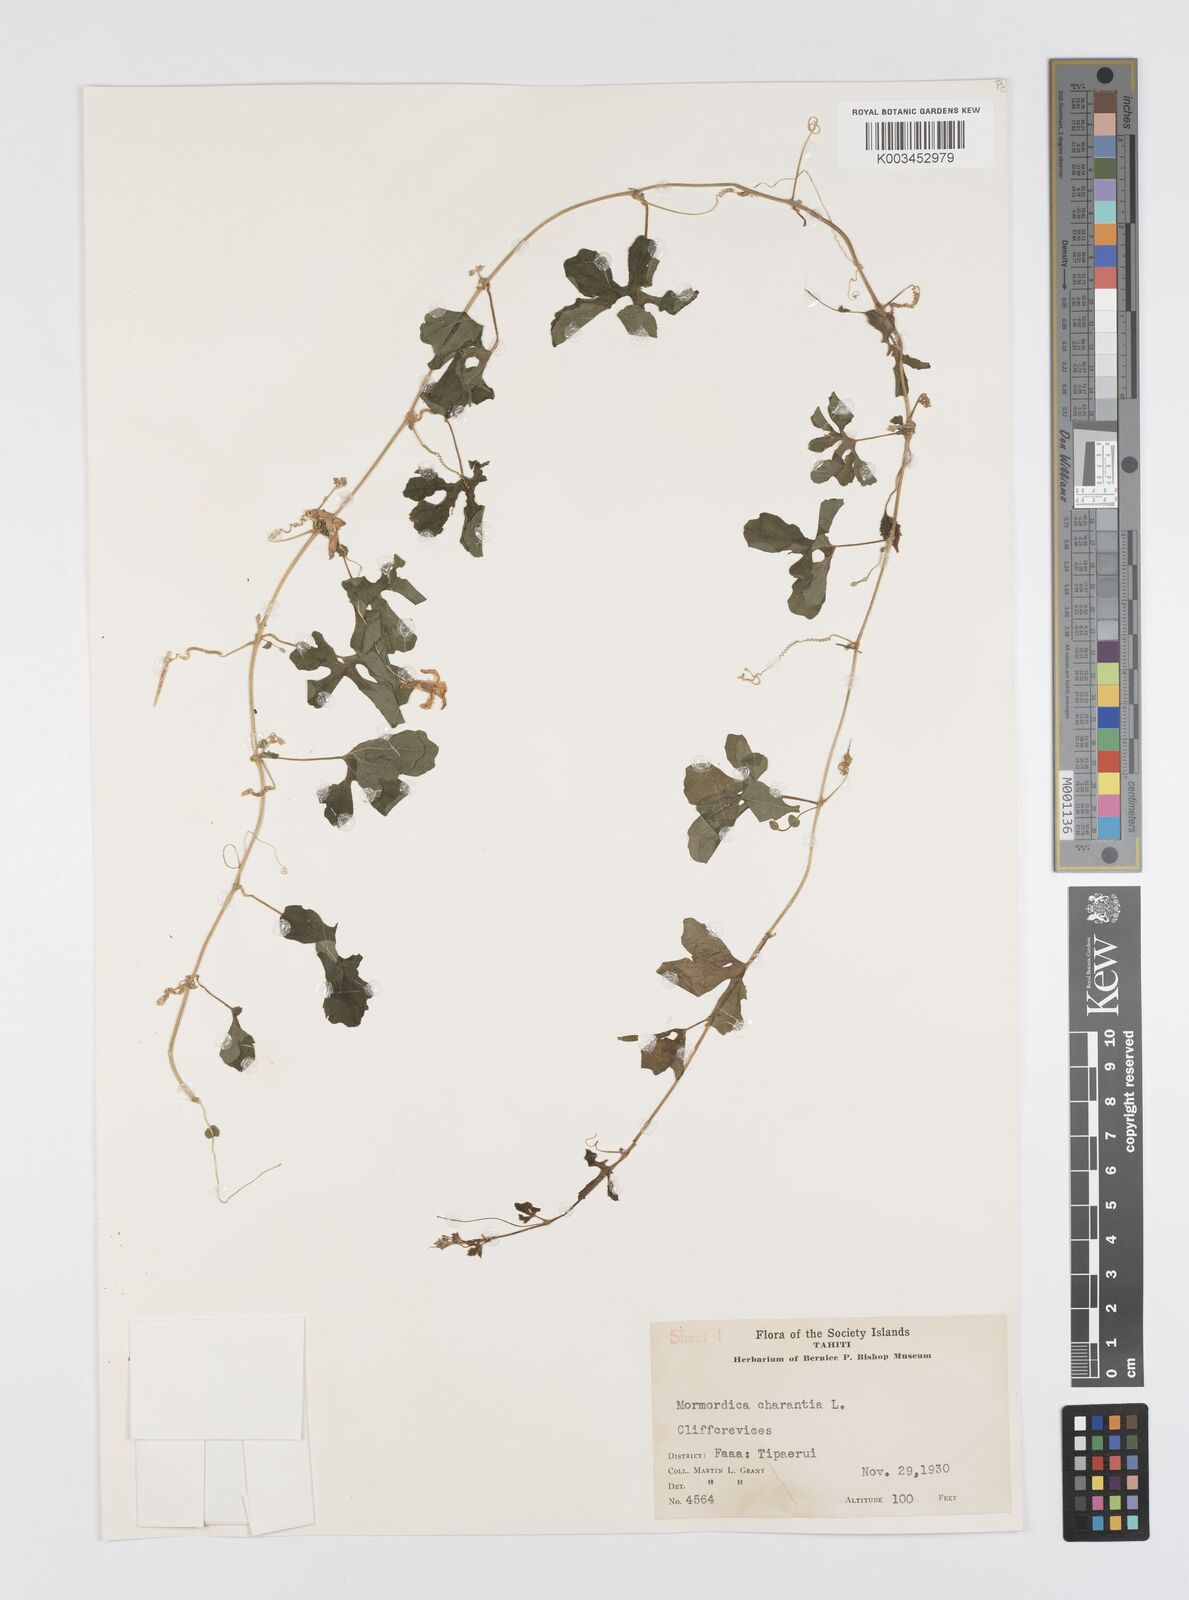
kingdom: Plantae
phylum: Tracheophyta
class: Magnoliopsida
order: Cucurbitales
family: Cucurbitaceae
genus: Momordica
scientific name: Momordica charantia
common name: Balsampear
